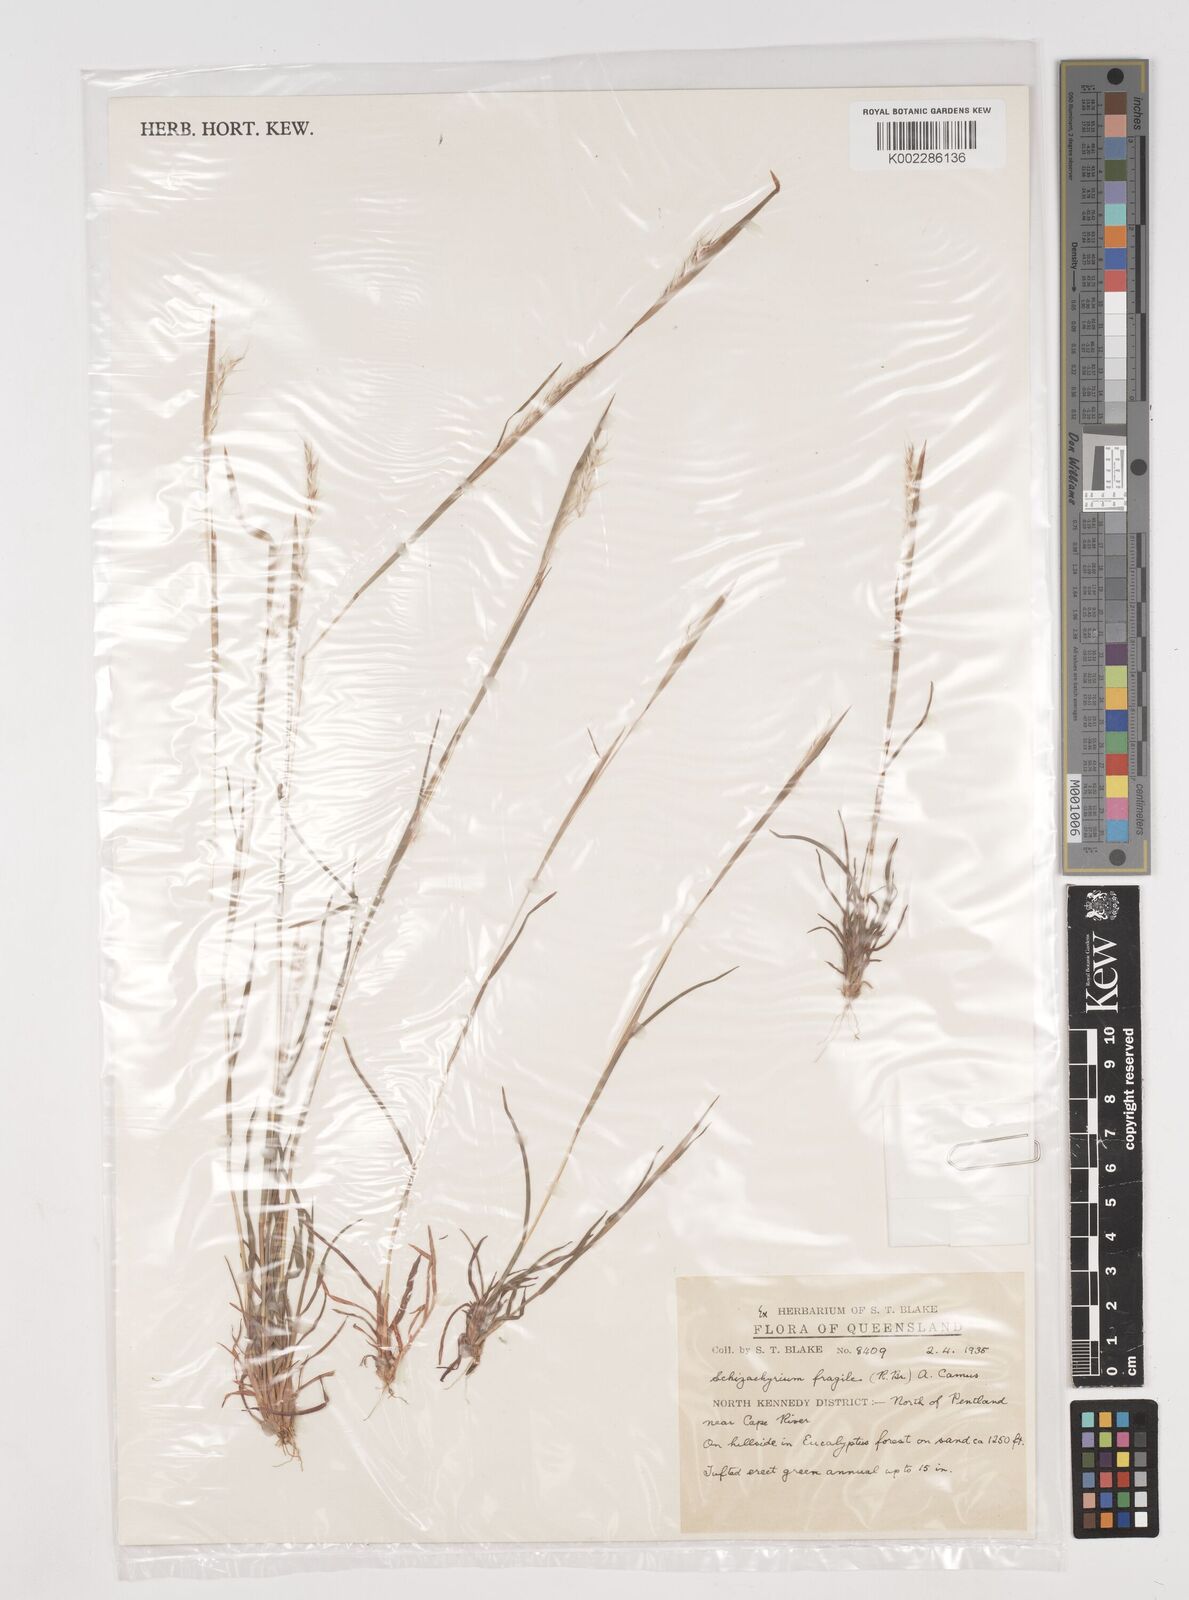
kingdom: Plantae
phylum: Tracheophyta
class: Liliopsida
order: Poales
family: Poaceae
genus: Schizachyrium
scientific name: Schizachyrium fragile
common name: Red spathe grass
